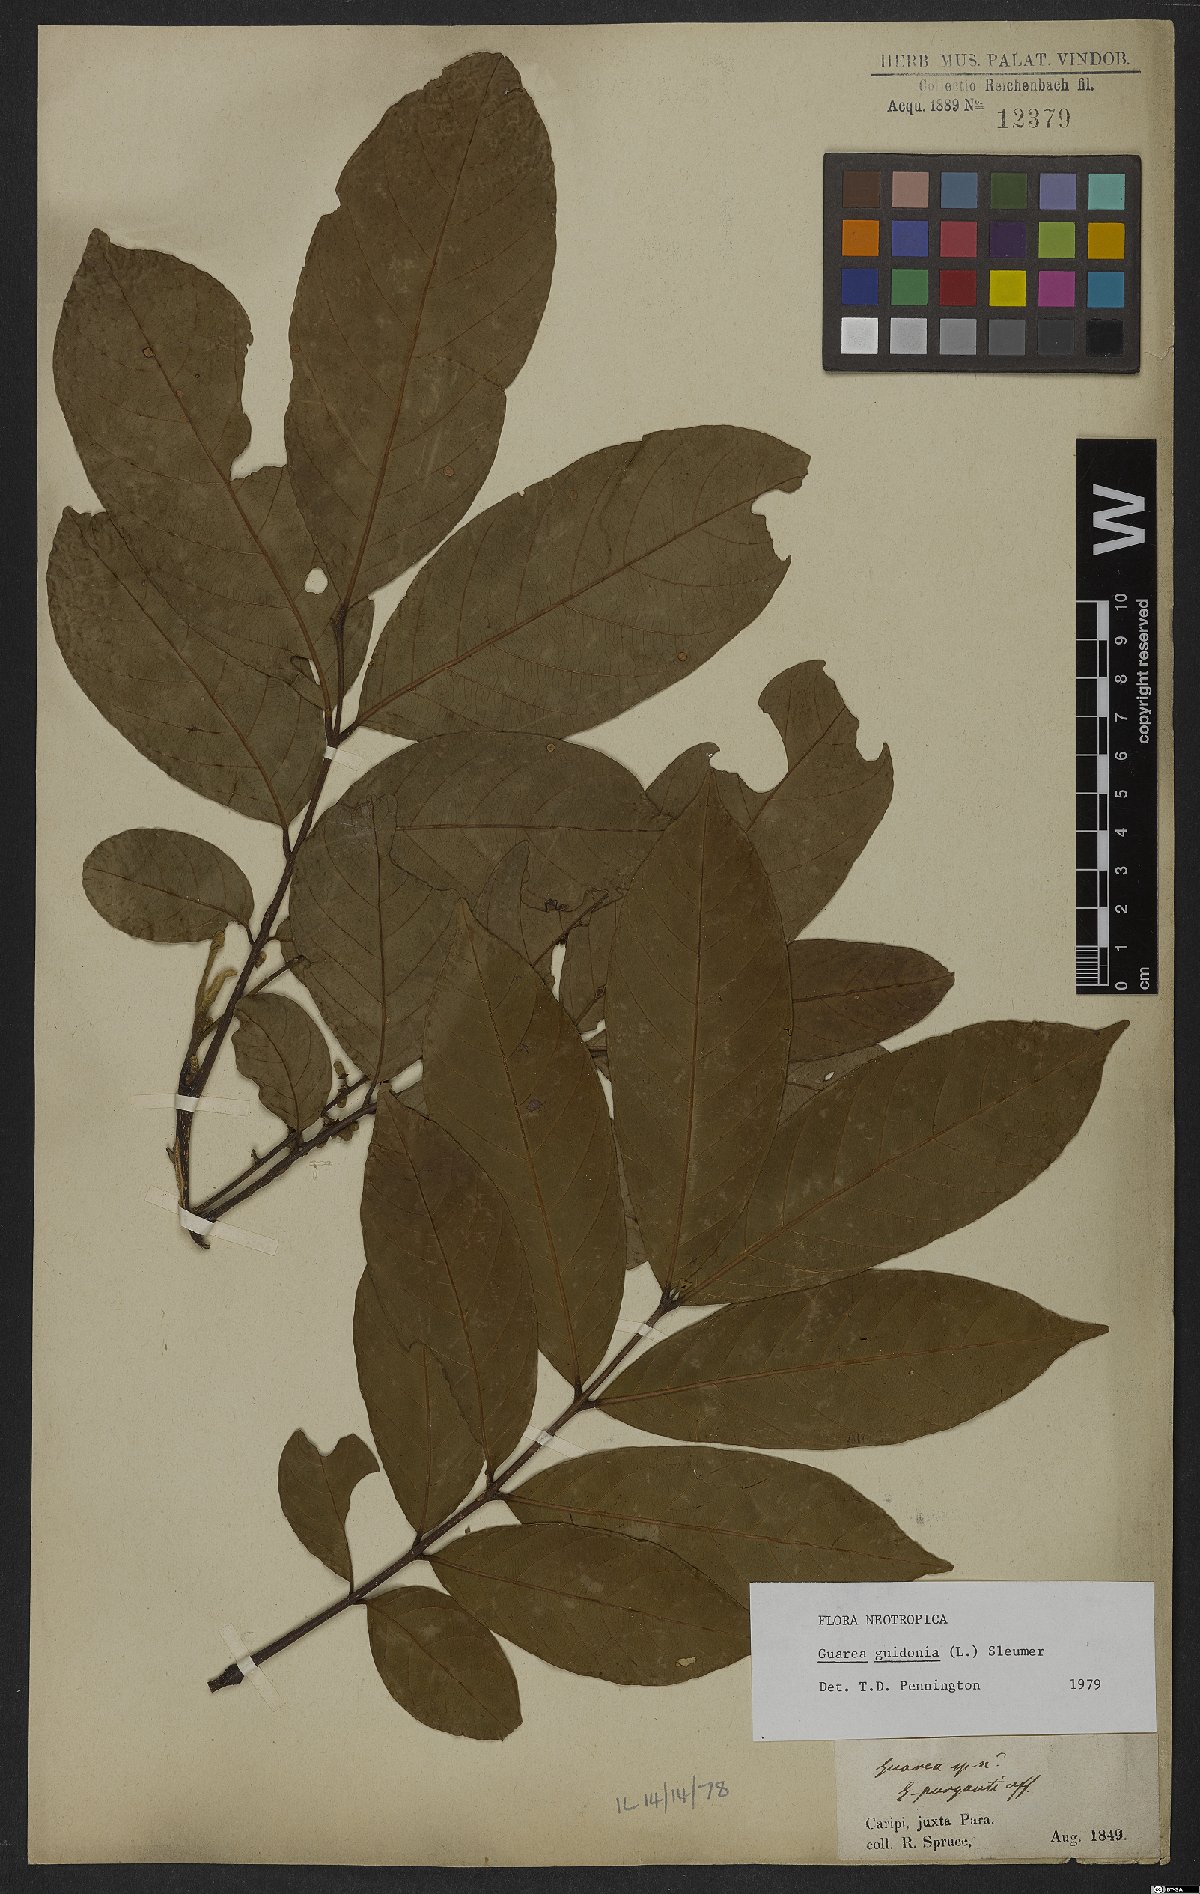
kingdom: Plantae
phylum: Tracheophyta
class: Magnoliopsida
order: Sapindales
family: Meliaceae
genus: Guarea
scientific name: Guarea guidonia
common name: American muskwood
